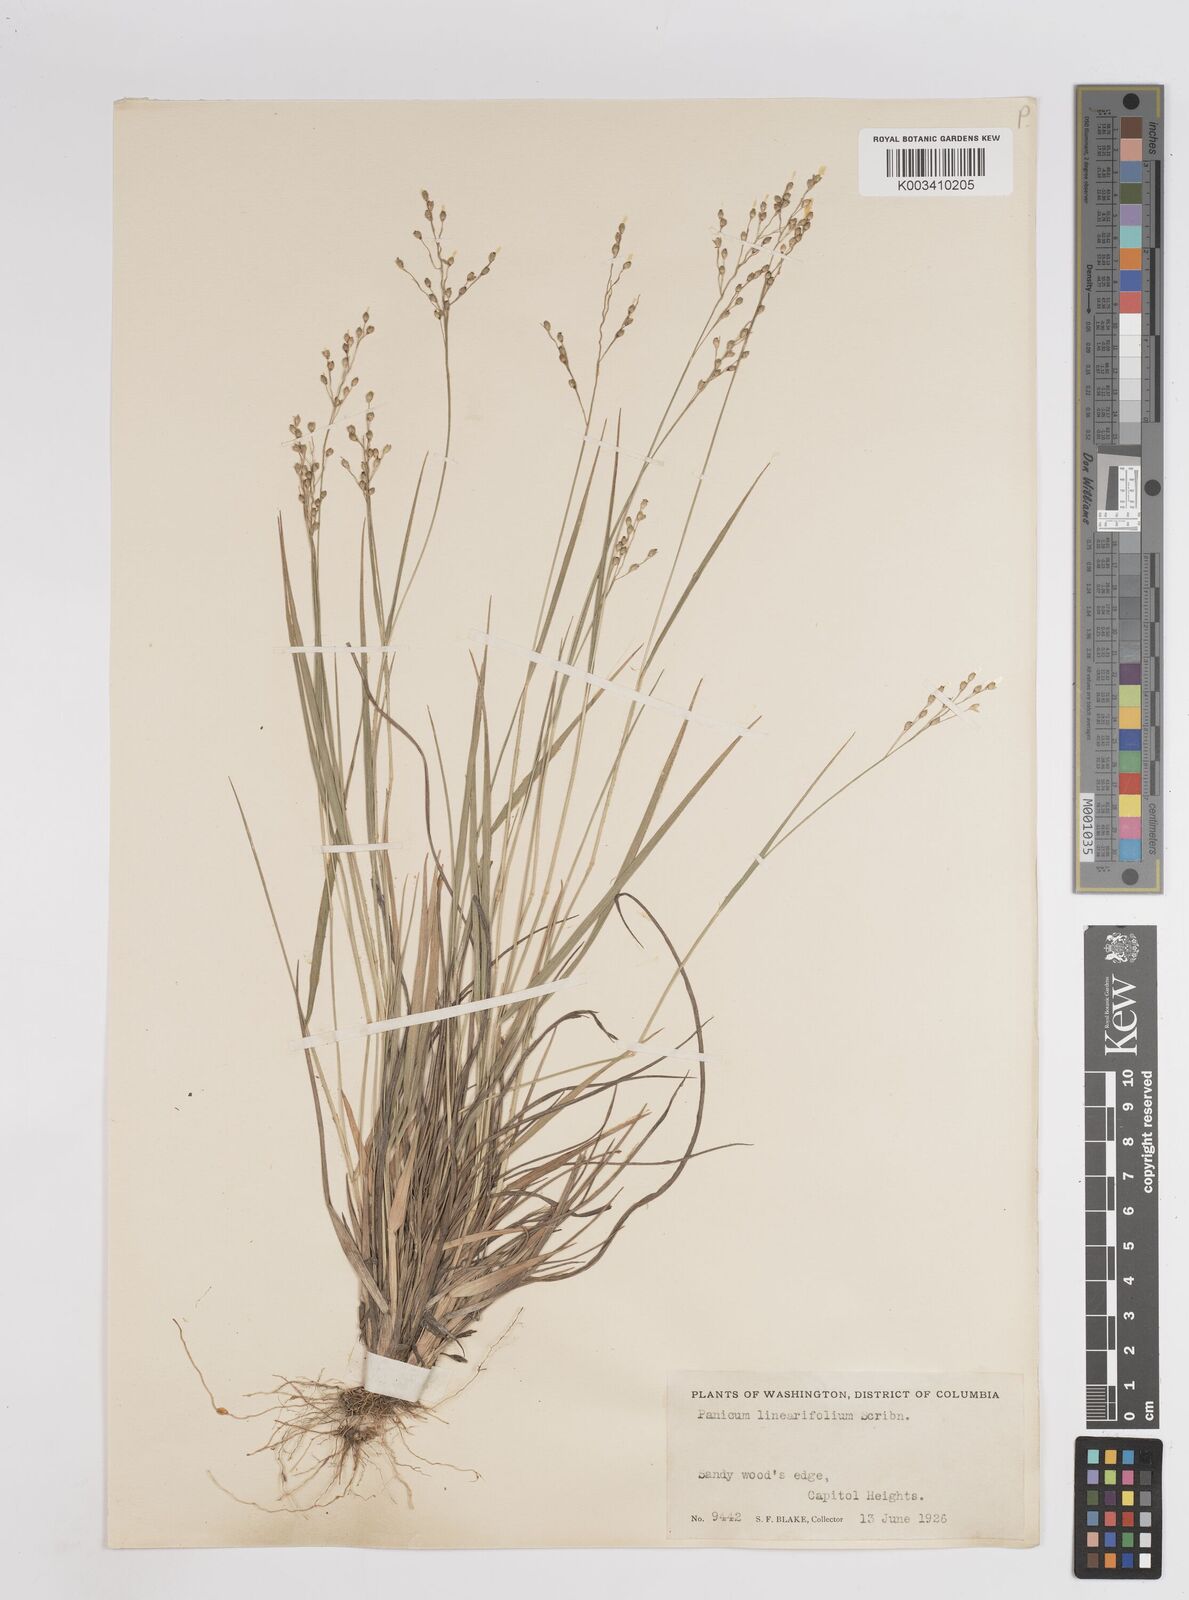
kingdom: Plantae
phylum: Tracheophyta
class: Liliopsida
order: Poales
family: Poaceae
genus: Dichanthelium
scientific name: Dichanthelium linearifolium
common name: Linear-leaved panicgrass
